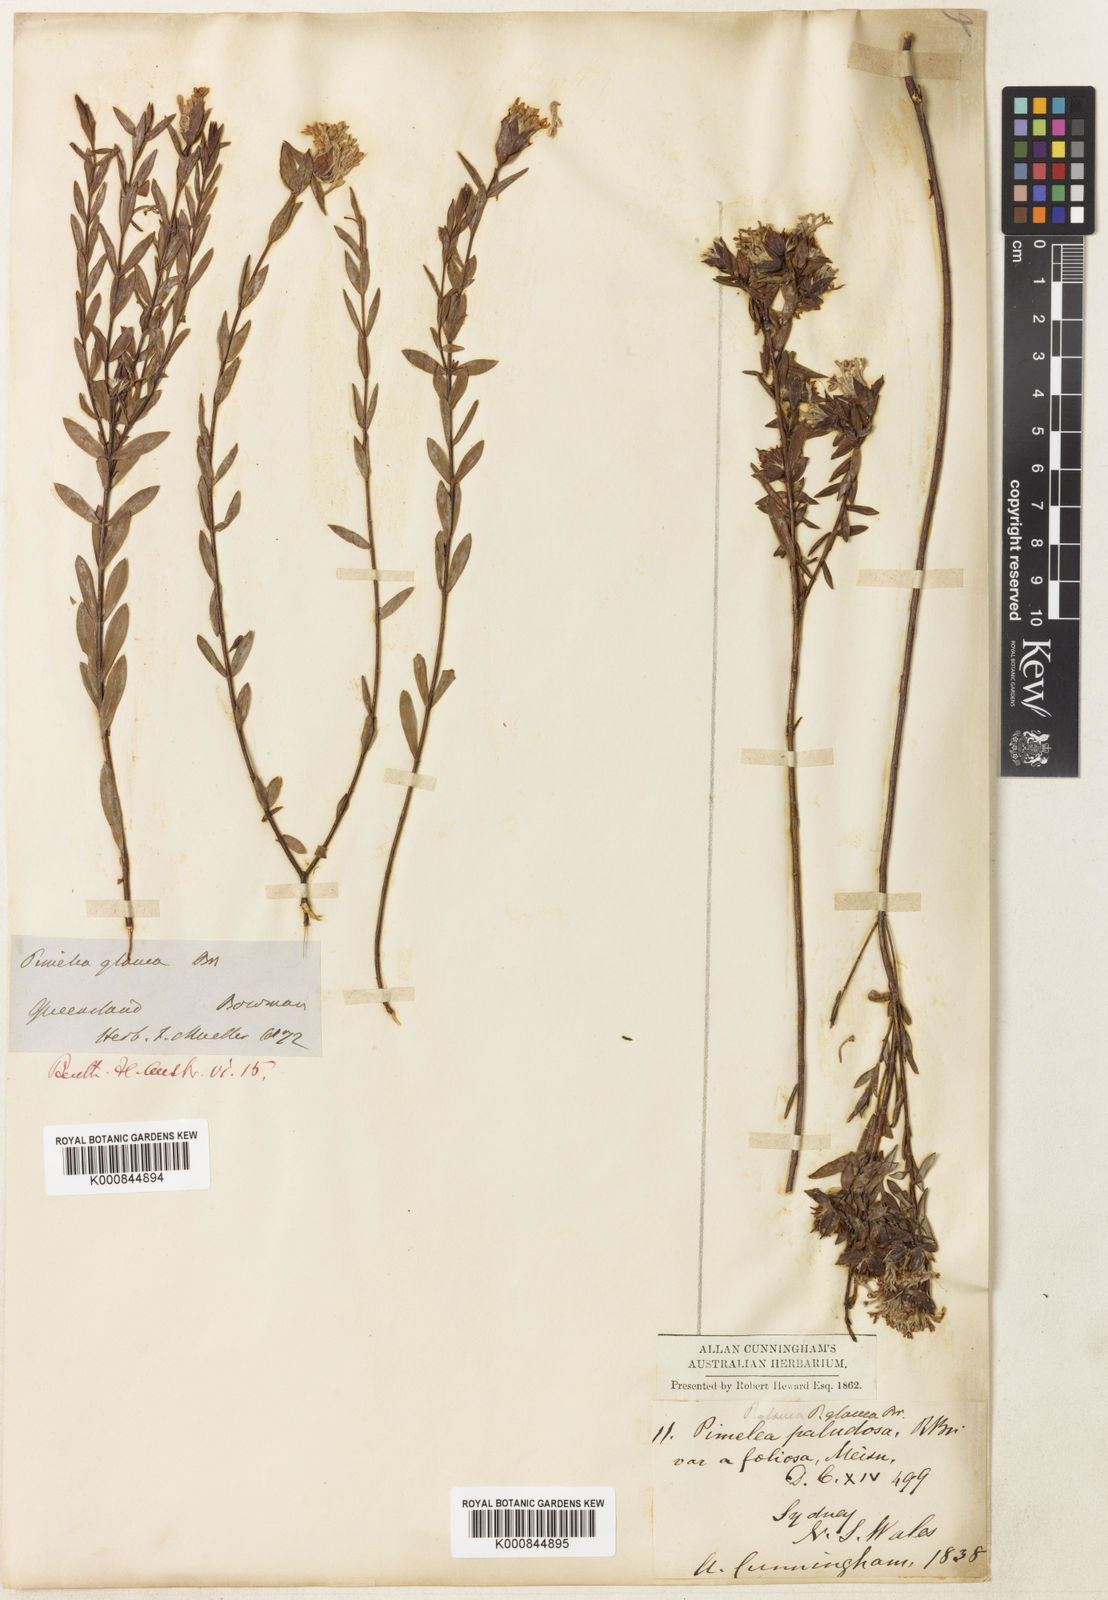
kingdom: Plantae
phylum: Tracheophyta
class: Magnoliopsida
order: Malvales
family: Thymelaeaceae
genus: Pimelea
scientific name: Pimelea glauca
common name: Smooth riceflower
